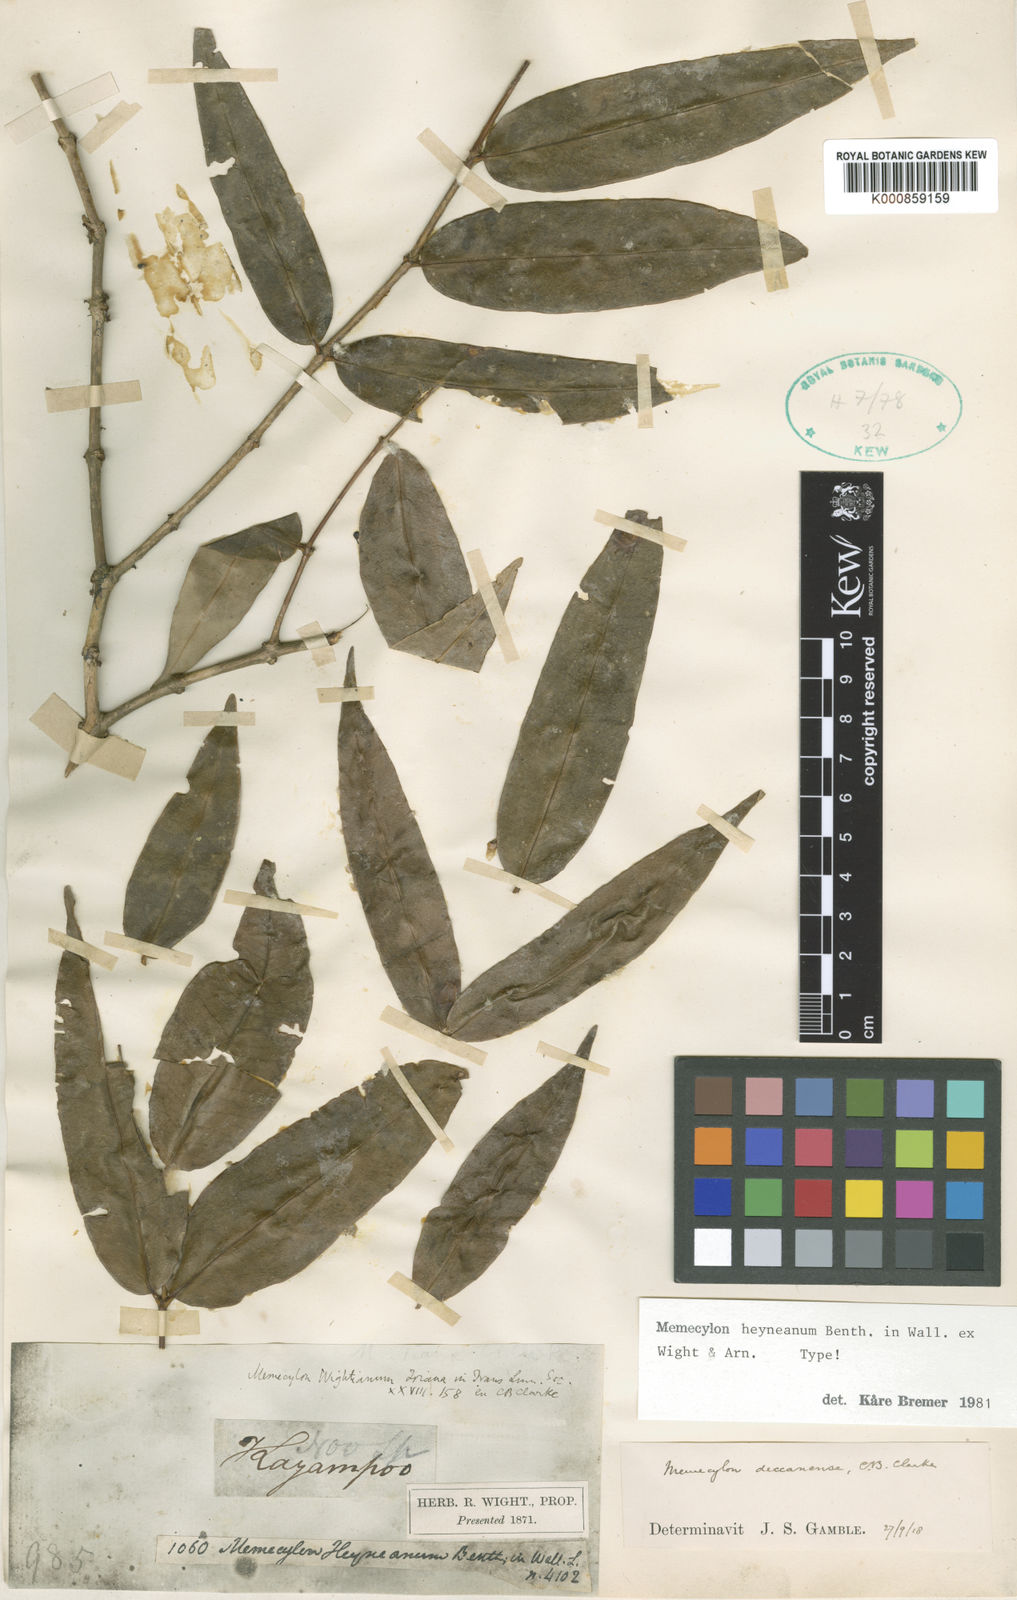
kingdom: Plantae
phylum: Tracheophyta
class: Magnoliopsida
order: Myrtales
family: Melastomataceae
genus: Memecylon
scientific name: Memecylon
